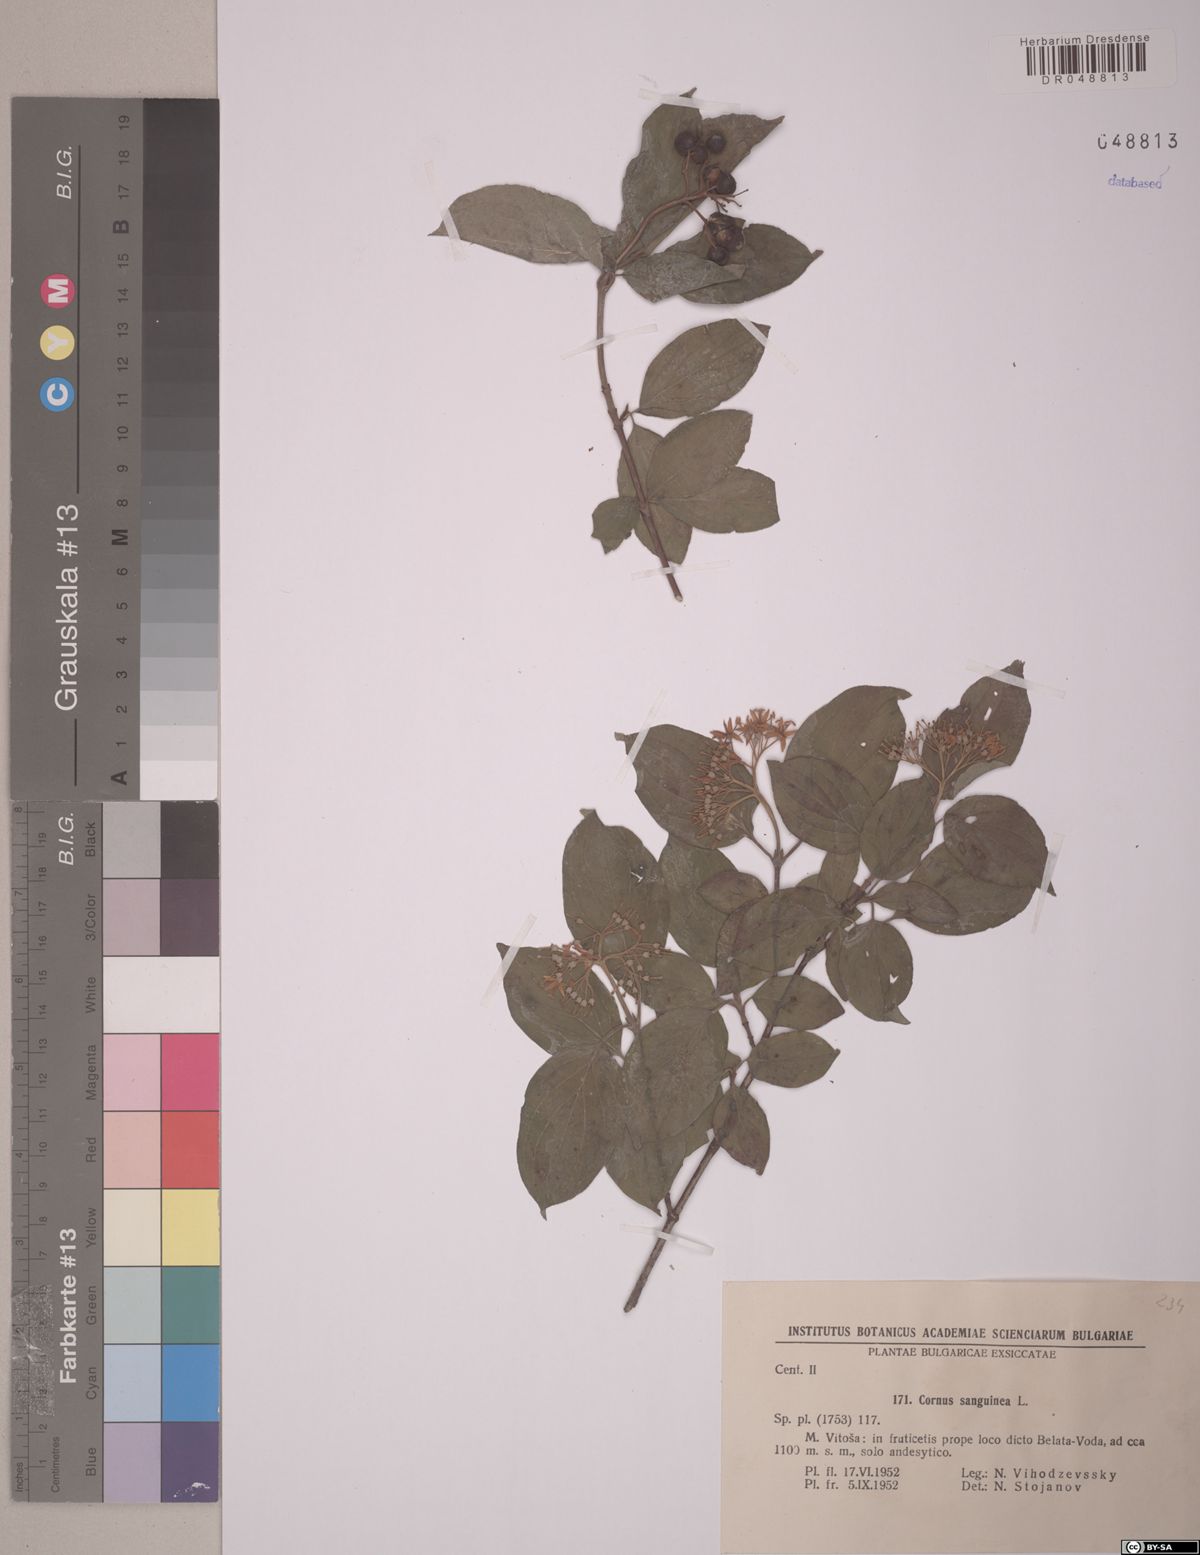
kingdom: Plantae
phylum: Tracheophyta
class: Magnoliopsida
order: Cornales
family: Cornaceae
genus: Cornus
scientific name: Cornus sanguinea
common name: Dogwood
